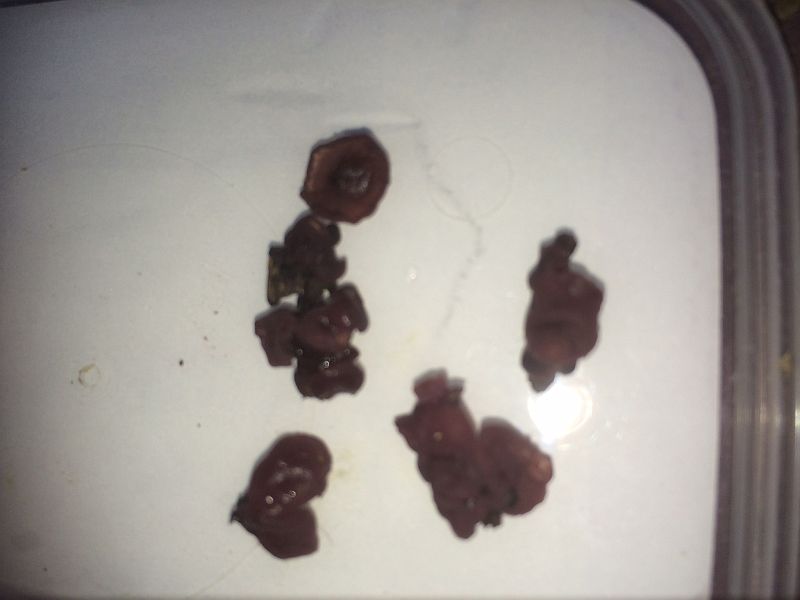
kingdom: Fungi
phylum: Ascomycota
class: Leotiomycetes
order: Helotiales
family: Gelatinodiscaceae
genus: Ascocoryne
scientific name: Ascocoryne cylichnium
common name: stor sejskive
